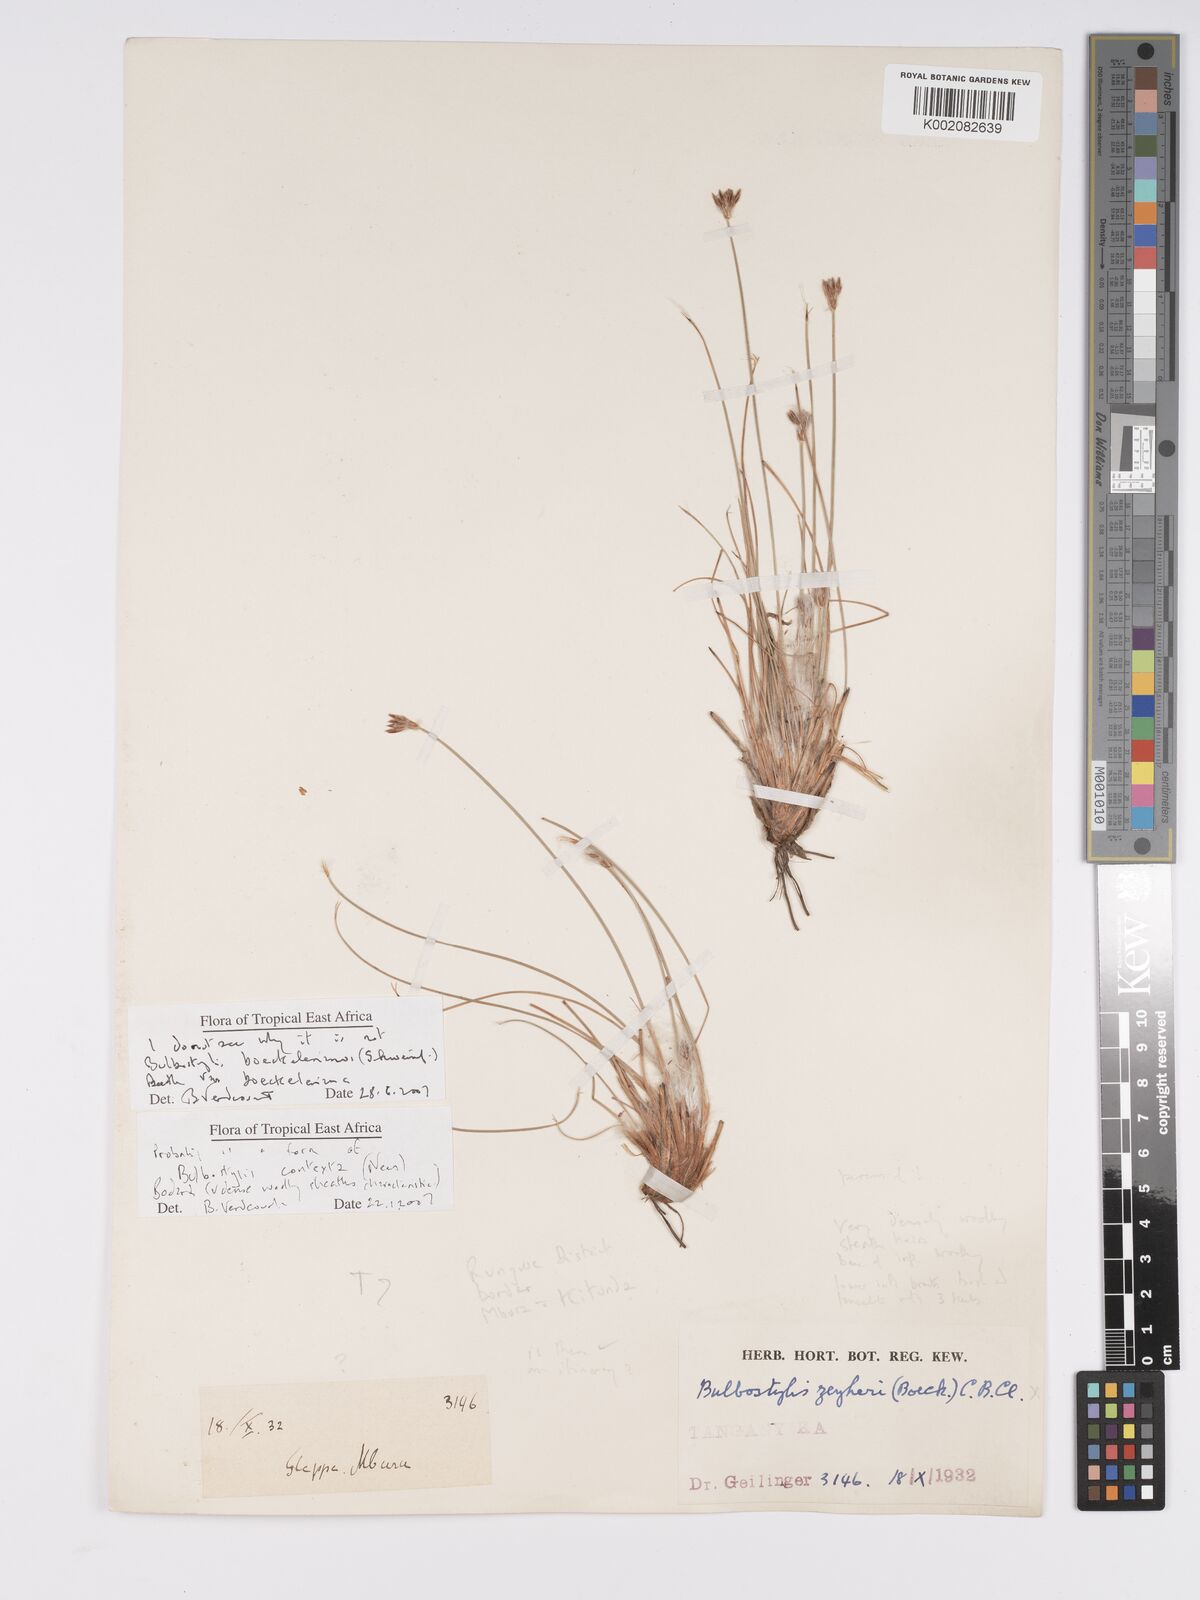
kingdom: Plantae
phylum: Tracheophyta
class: Liliopsida
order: Poales
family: Cyperaceae
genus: Bulbostylis
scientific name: Bulbostylis boeckeleriana
